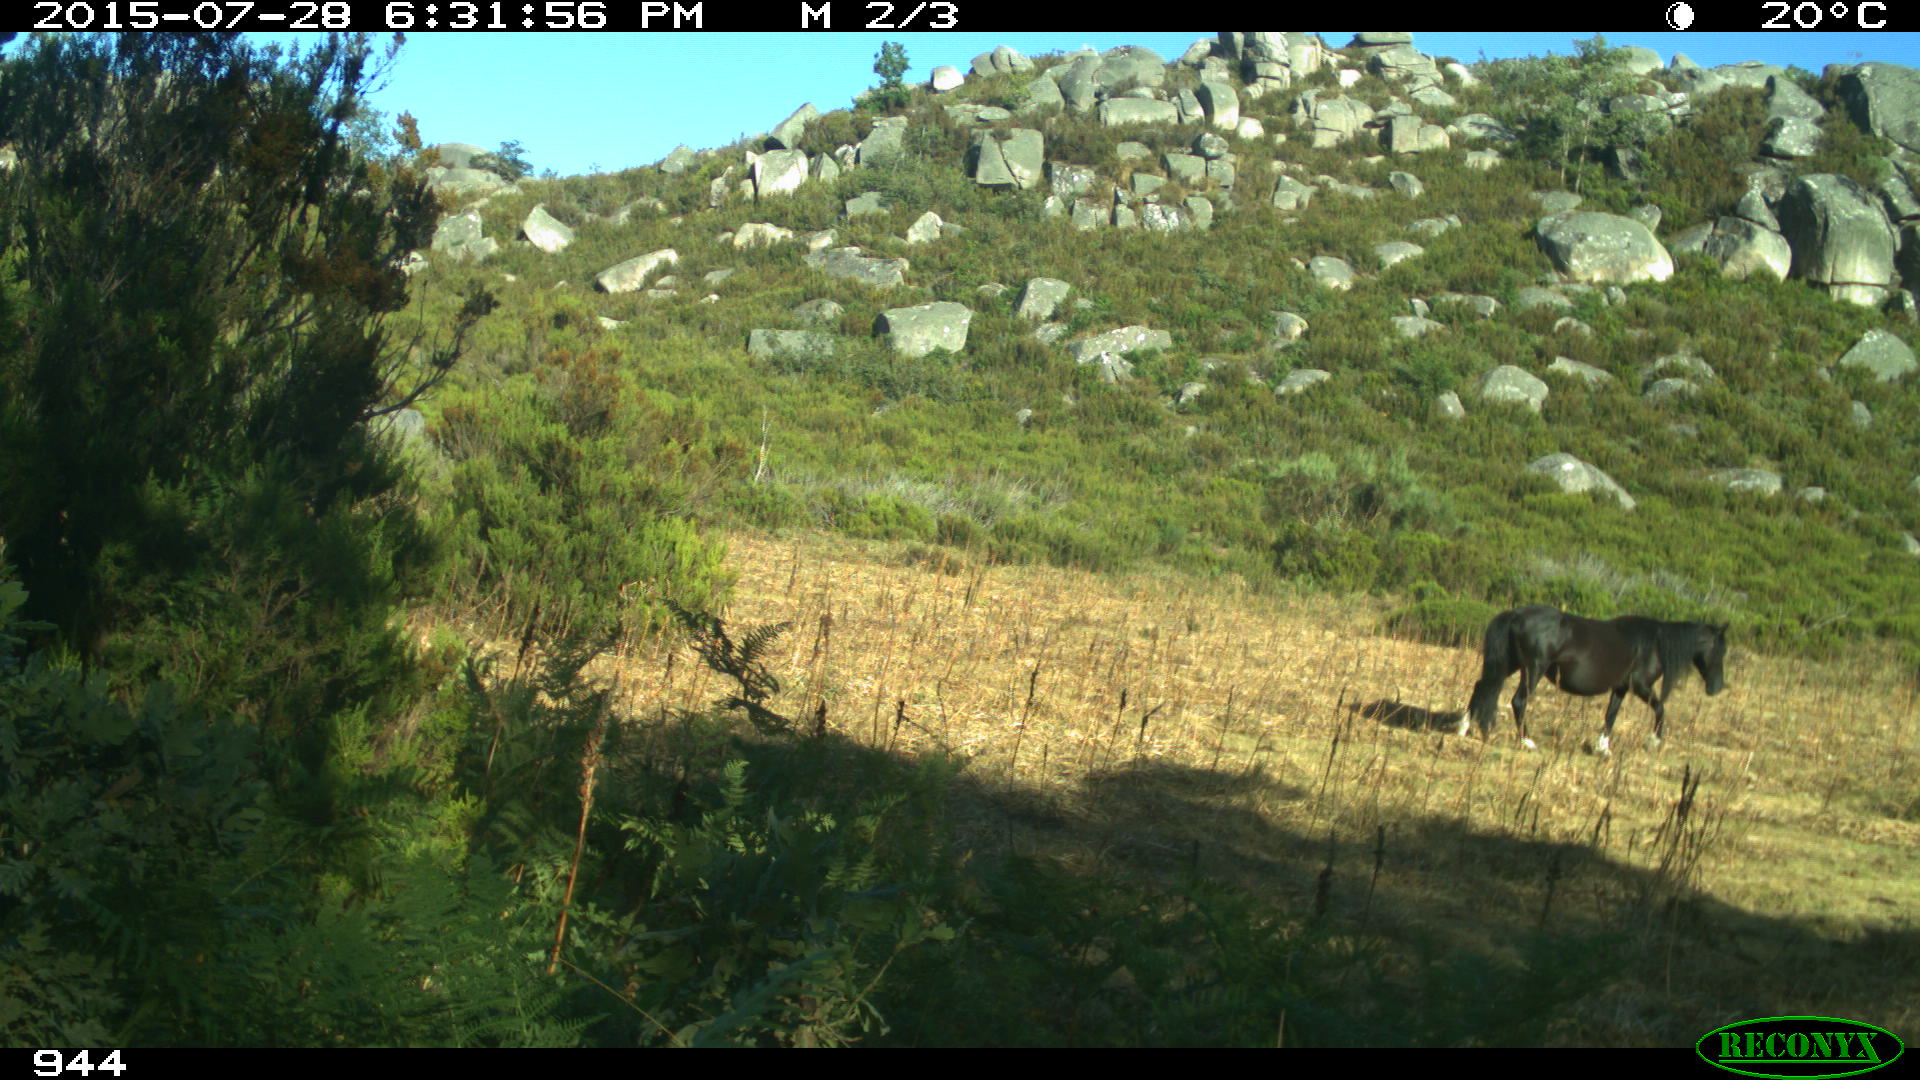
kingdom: Animalia
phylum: Chordata
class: Mammalia
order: Perissodactyla
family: Equidae
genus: Equus
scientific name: Equus caballus
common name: Horse
